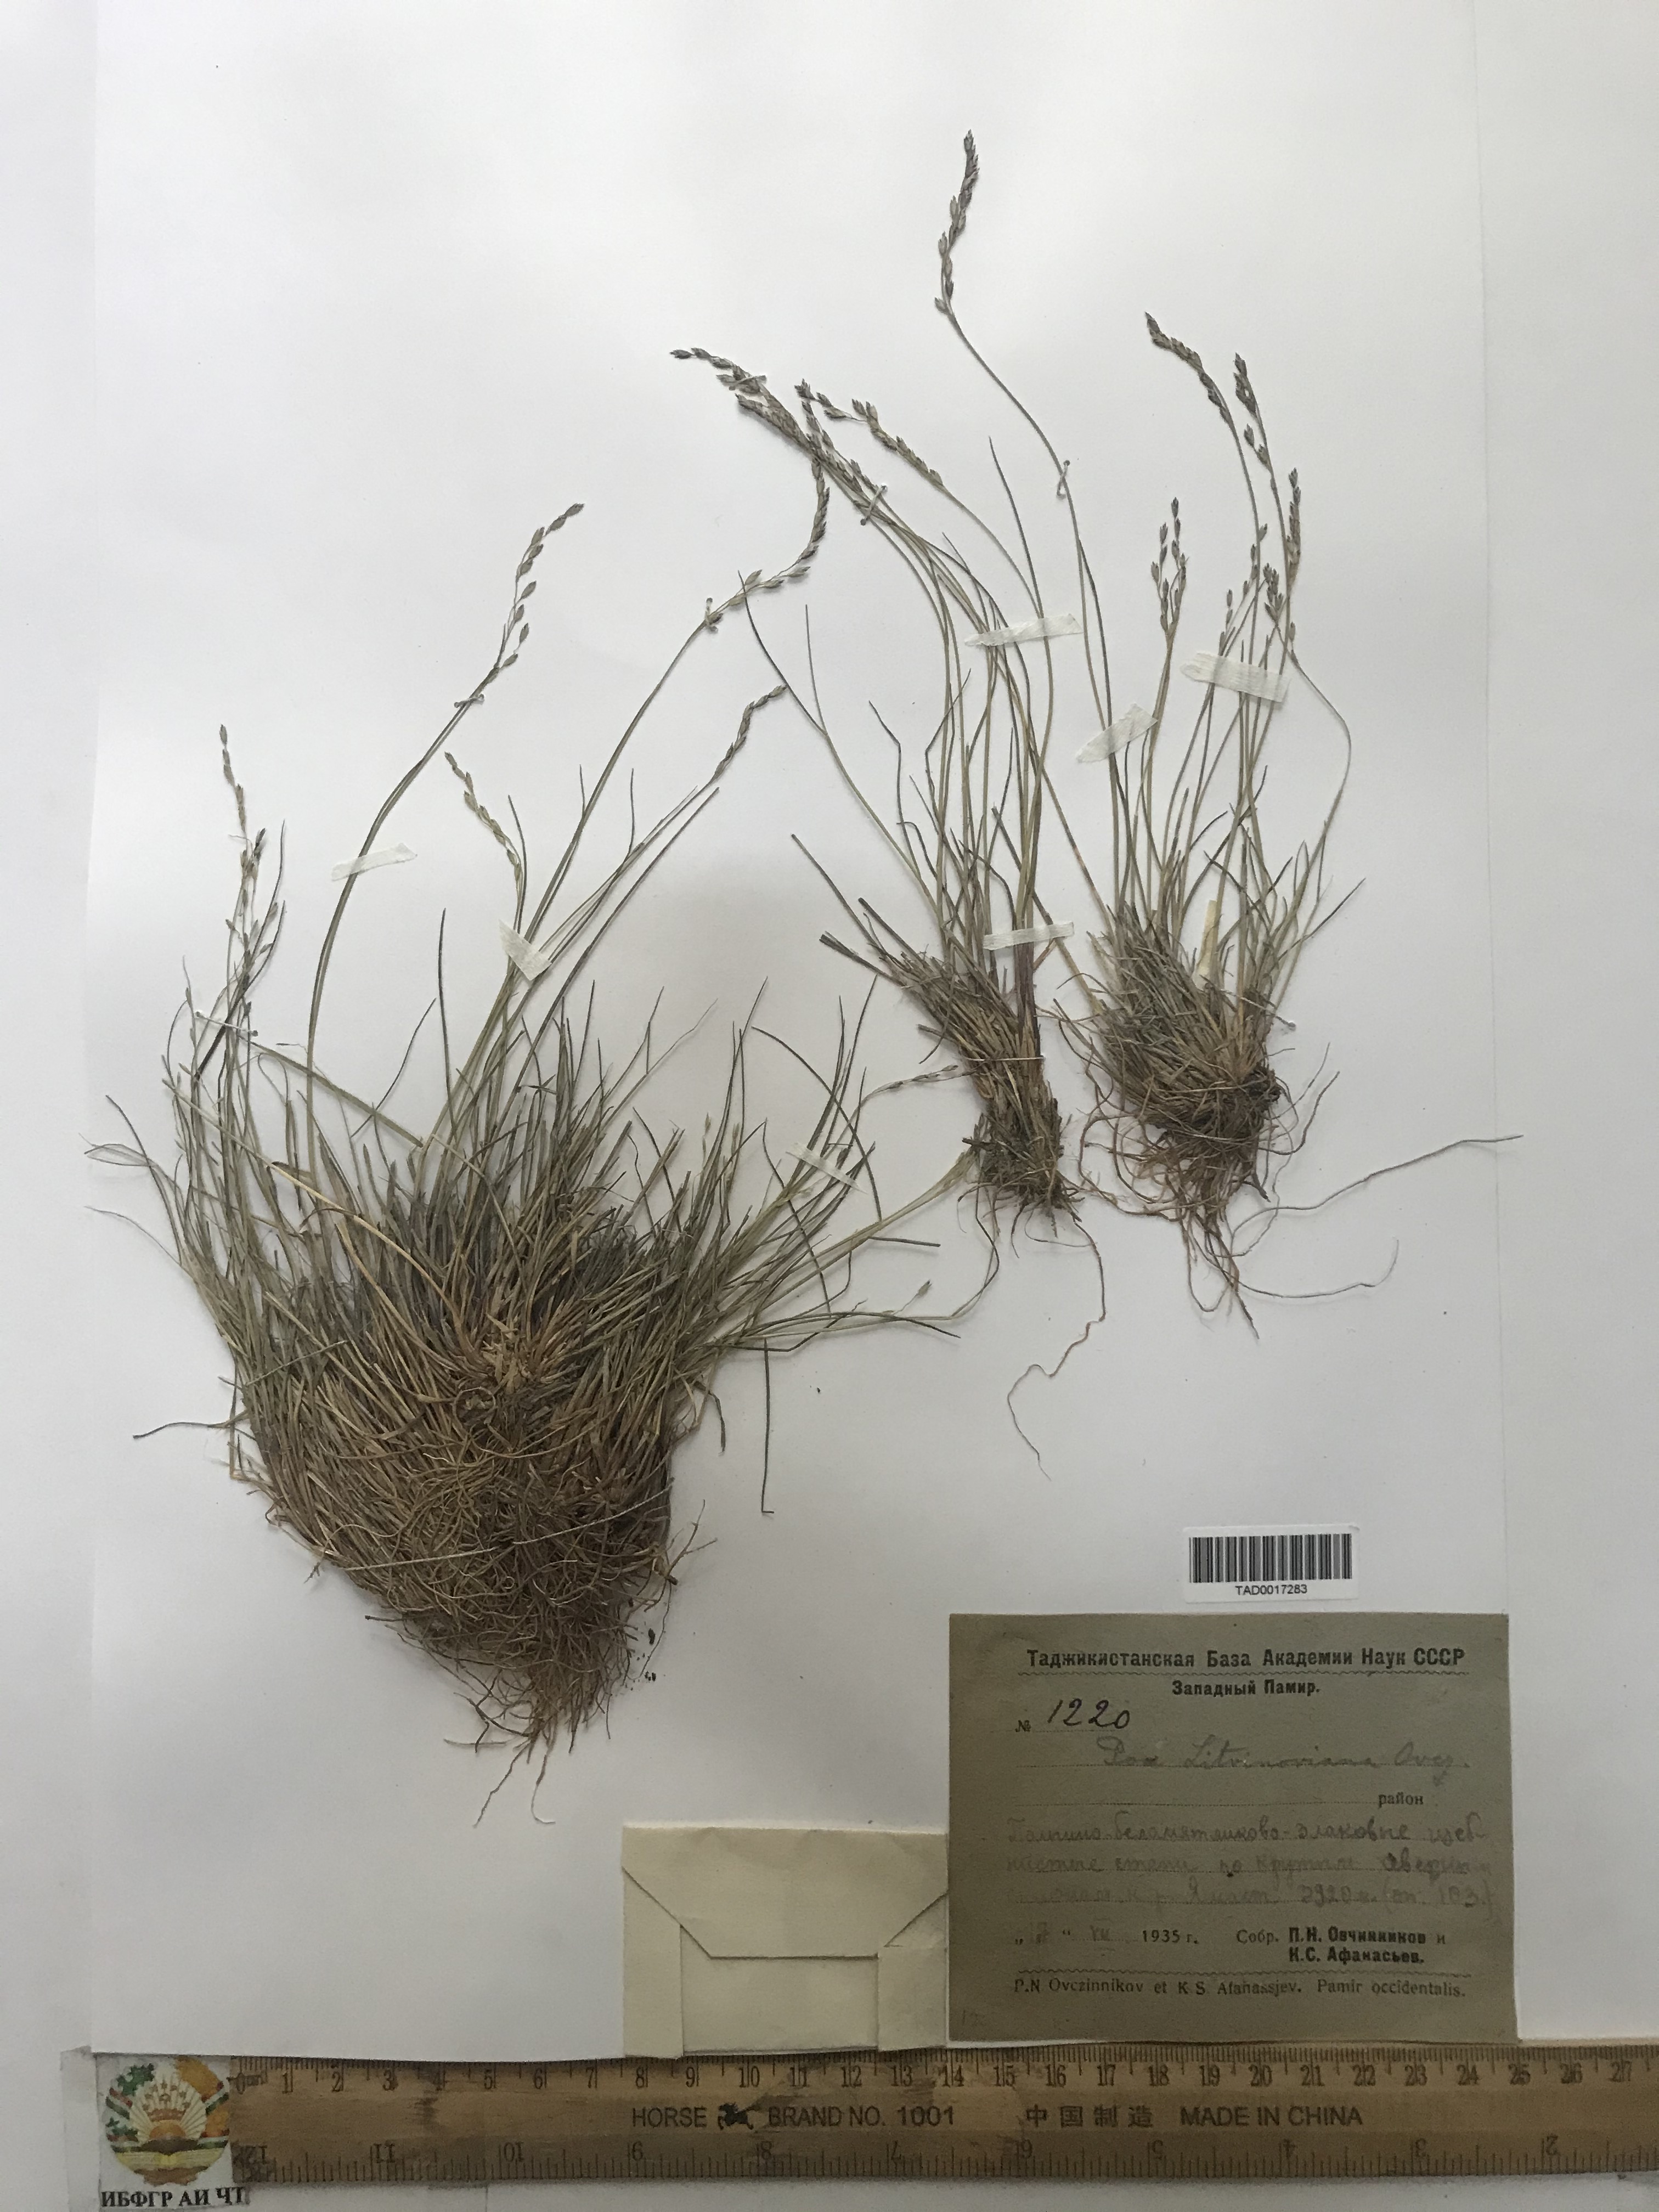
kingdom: Plantae
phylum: Tracheophyta
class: Liliopsida
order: Poales
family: Poaceae
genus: Poa
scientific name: Poa glauca
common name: Glaucous bluegrass
